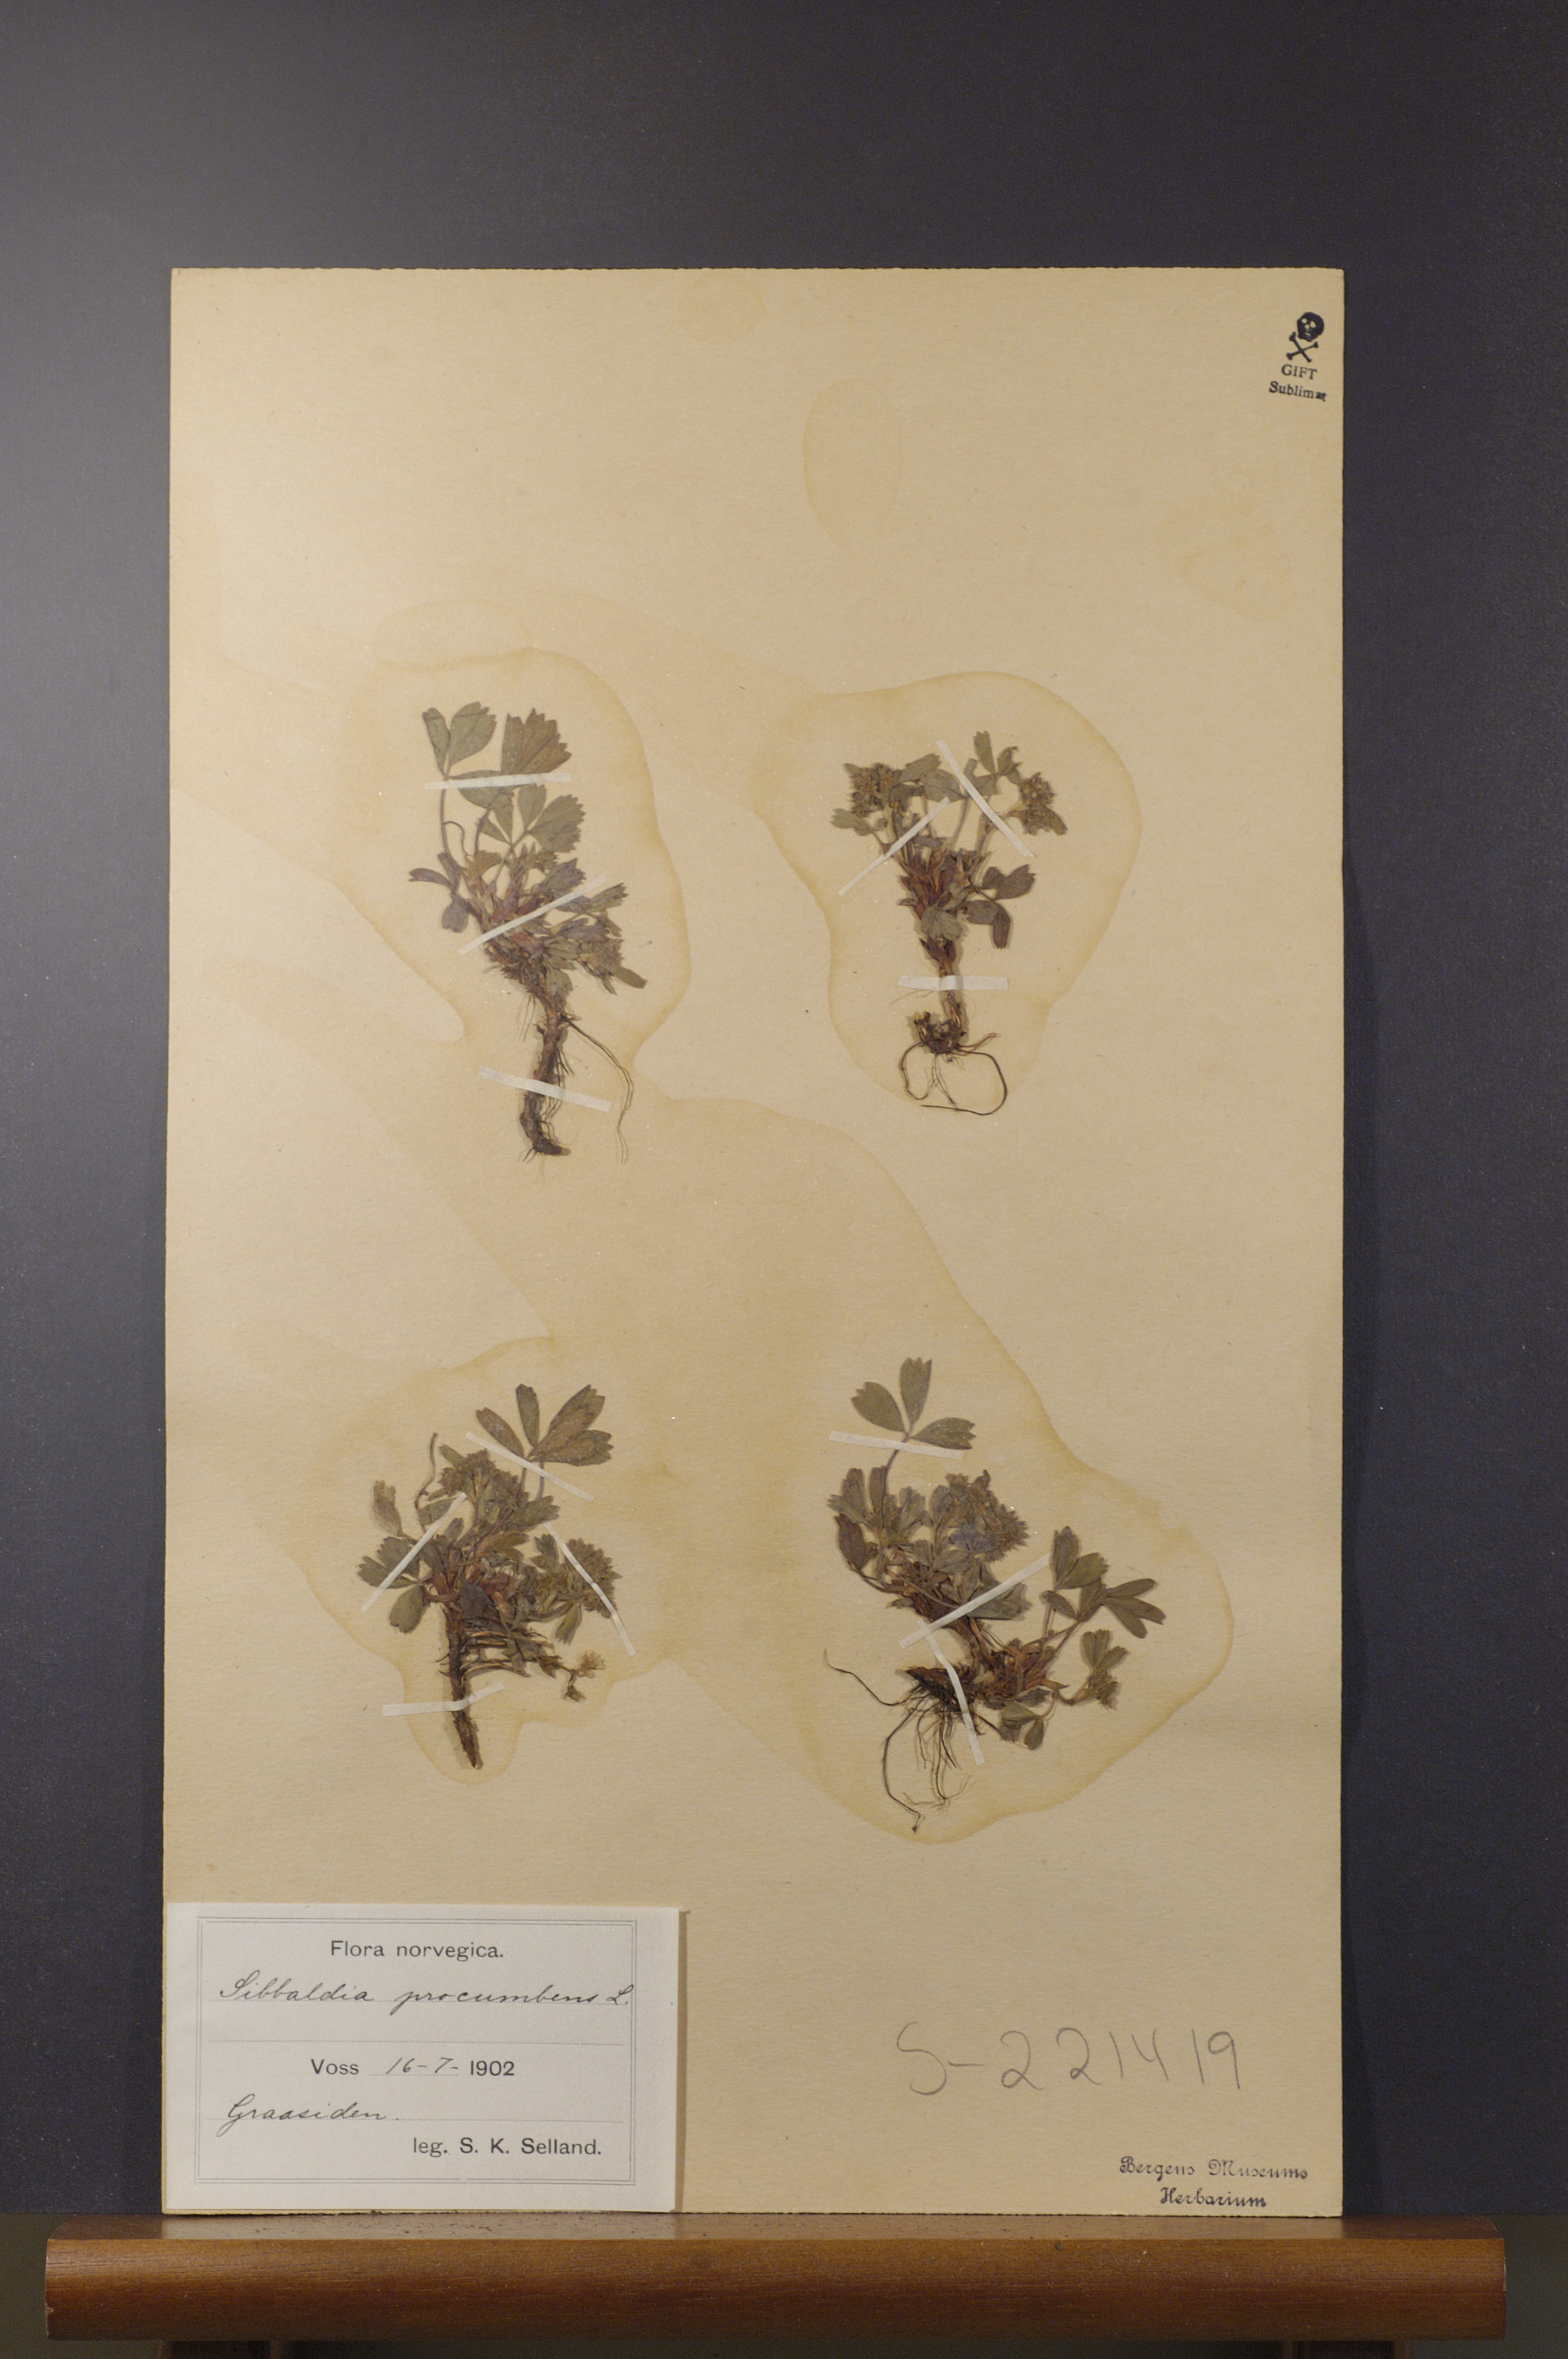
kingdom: Plantae
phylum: Tracheophyta
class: Magnoliopsida
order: Rosales
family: Rosaceae
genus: Sibbaldia
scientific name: Sibbaldia procumbens
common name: Creeping sibbaldia
